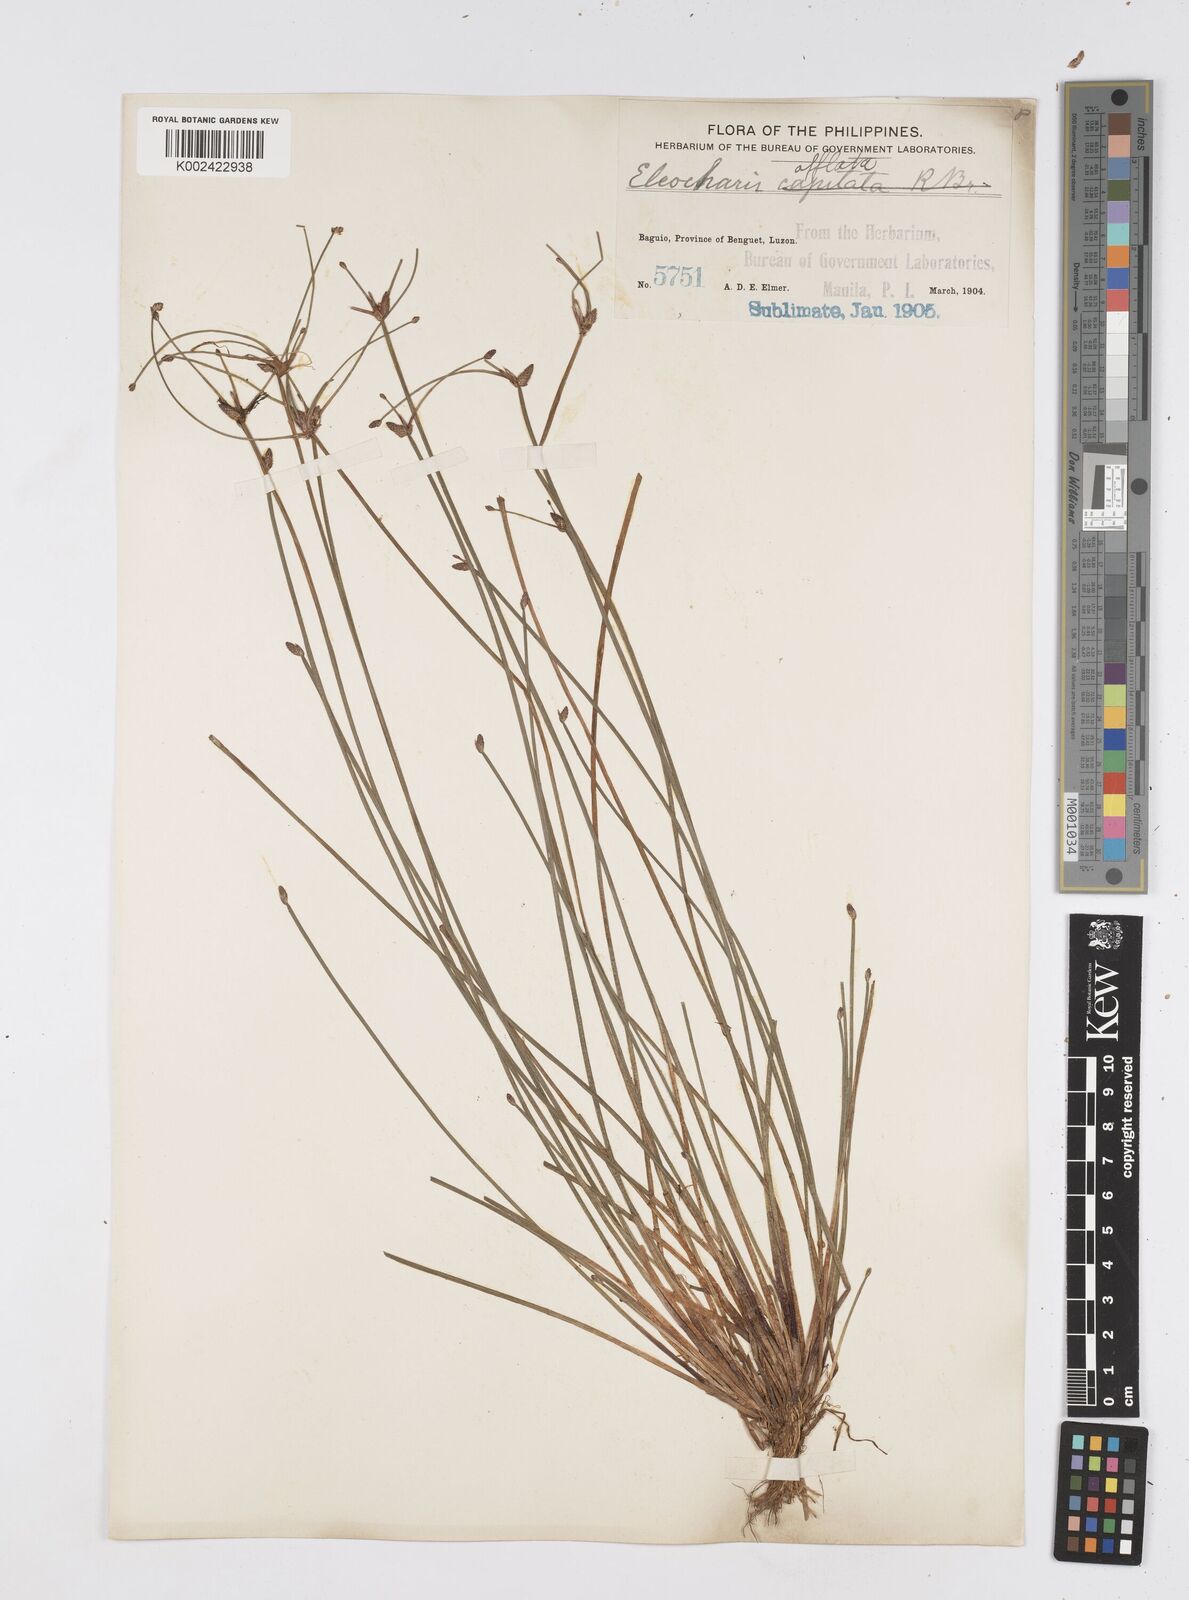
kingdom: Plantae
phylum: Tracheophyta
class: Liliopsida
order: Poales
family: Cyperaceae
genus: Eleocharis
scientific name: Eleocharis congesta
